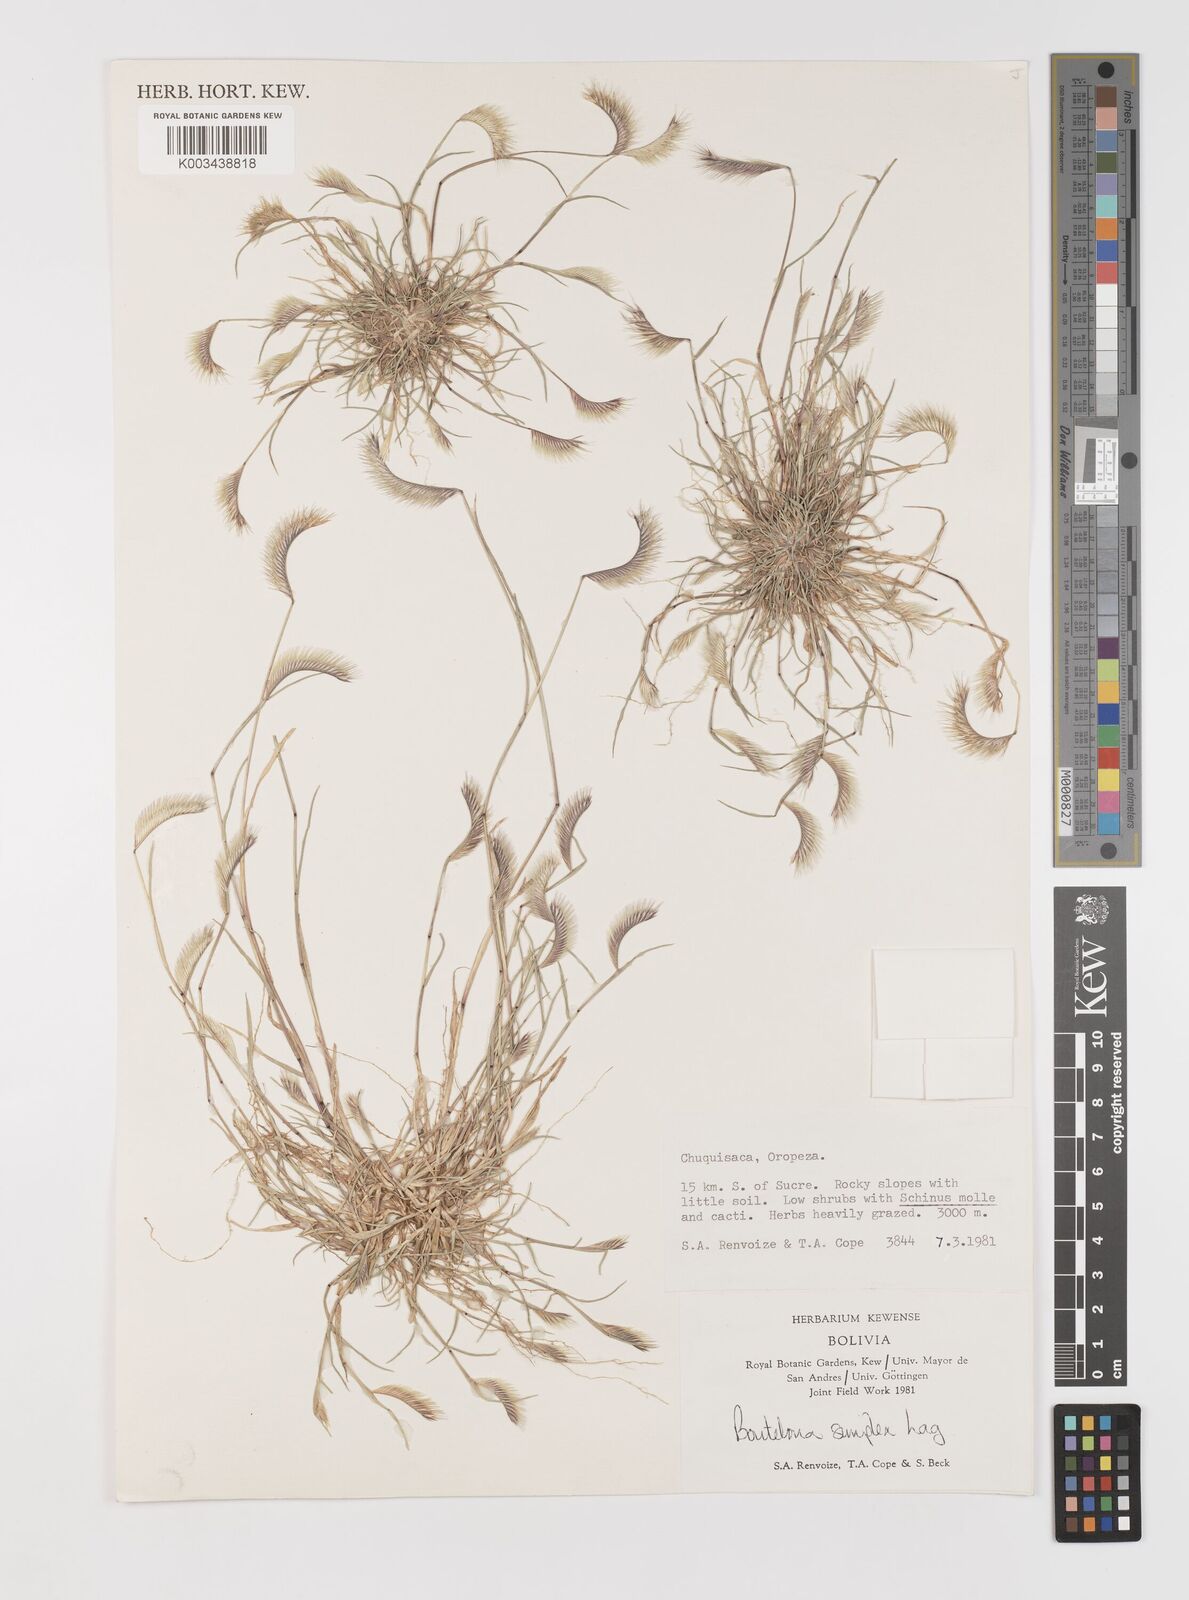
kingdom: Plantae
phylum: Tracheophyta
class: Liliopsida
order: Poales
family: Poaceae
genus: Bouteloua
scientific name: Bouteloua simplex
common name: Mat grama
